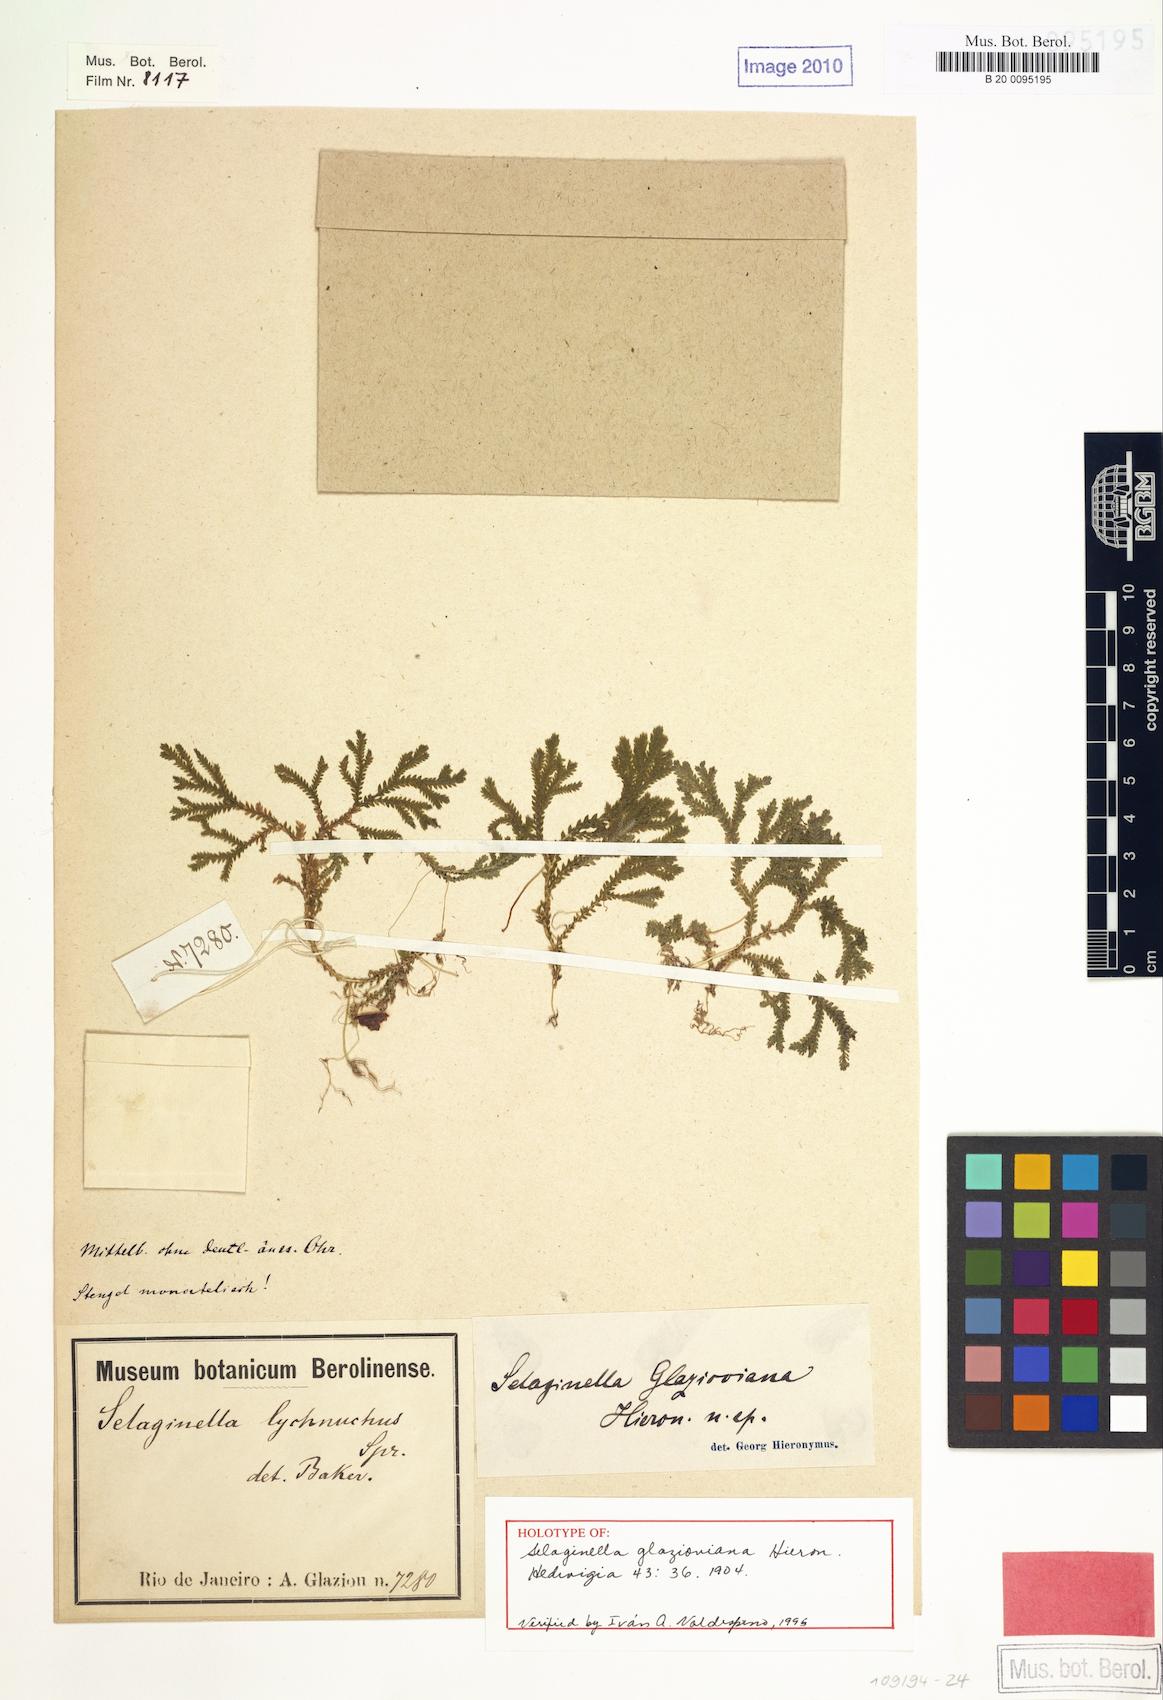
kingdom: Plantae
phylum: Tracheophyta
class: Lycopodiopsida
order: Selaginellales
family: Selaginellaceae
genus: Selaginella
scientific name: Selaginella erectifolia
